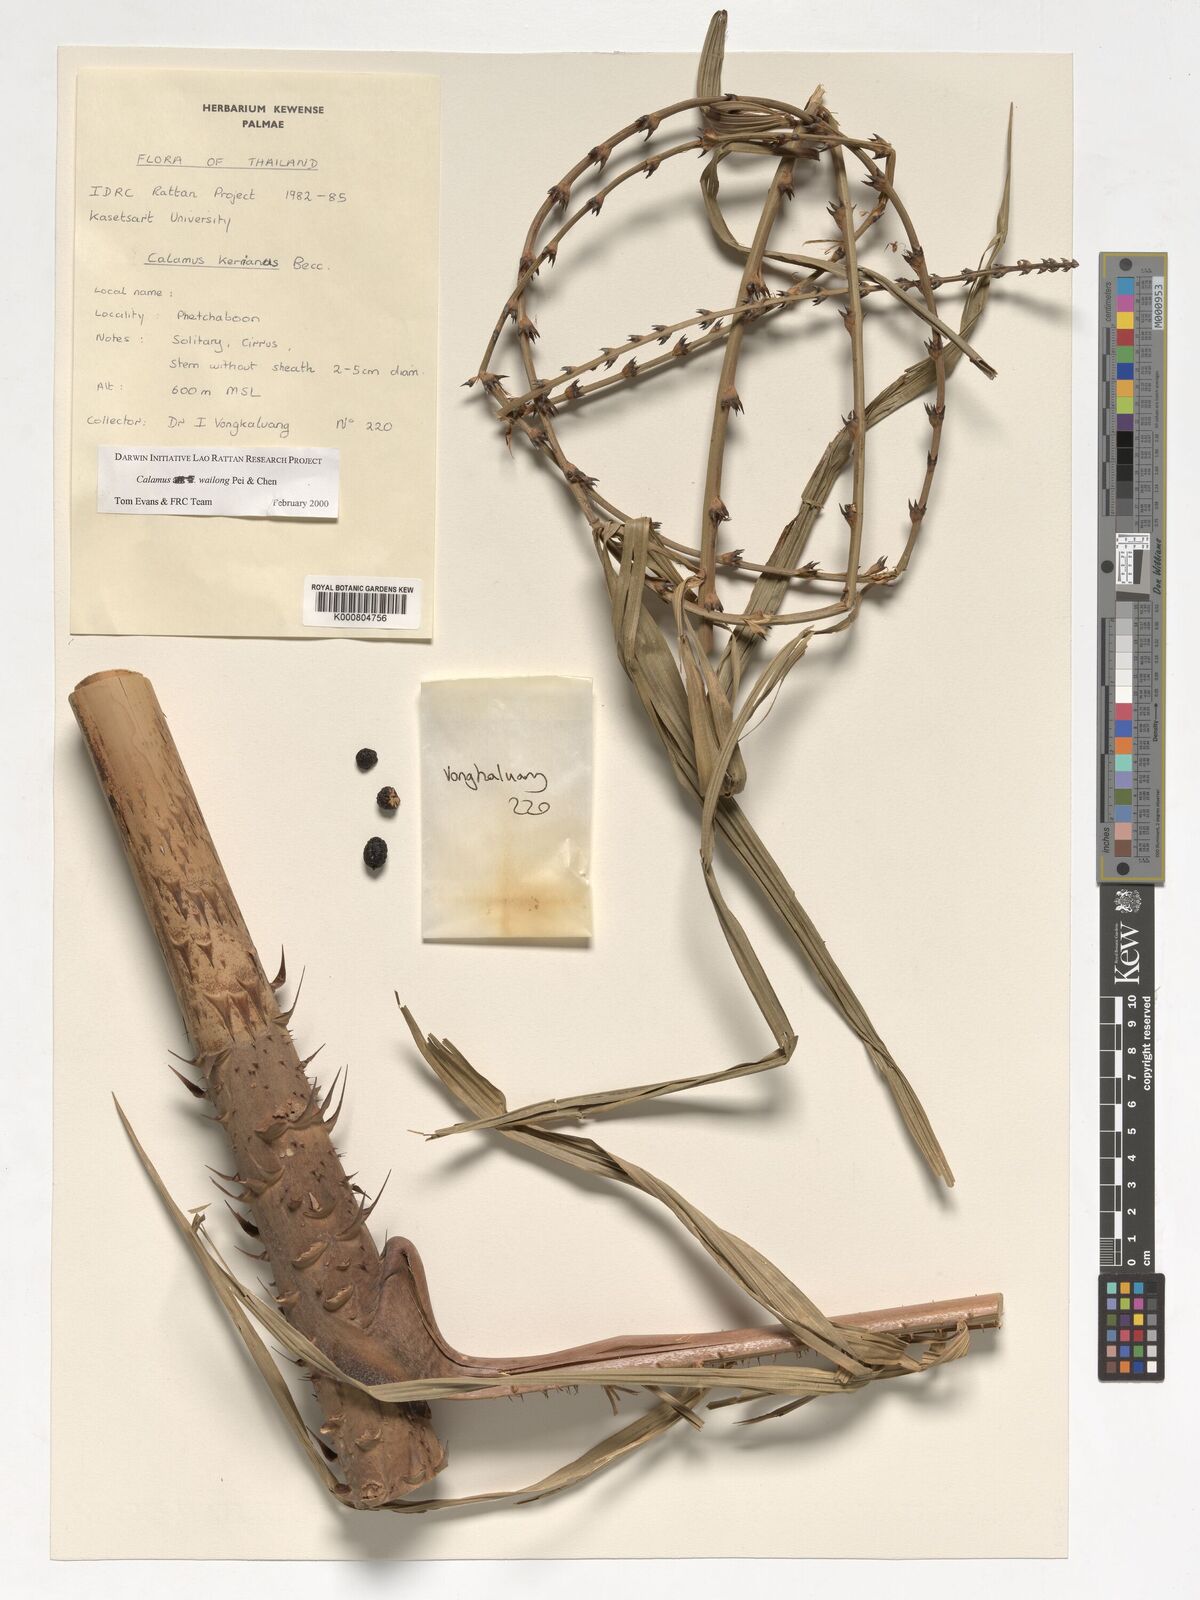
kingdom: Plantae
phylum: Tracheophyta
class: Liliopsida
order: Arecales
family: Arecaceae
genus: Calamus
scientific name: Calamus inermis
